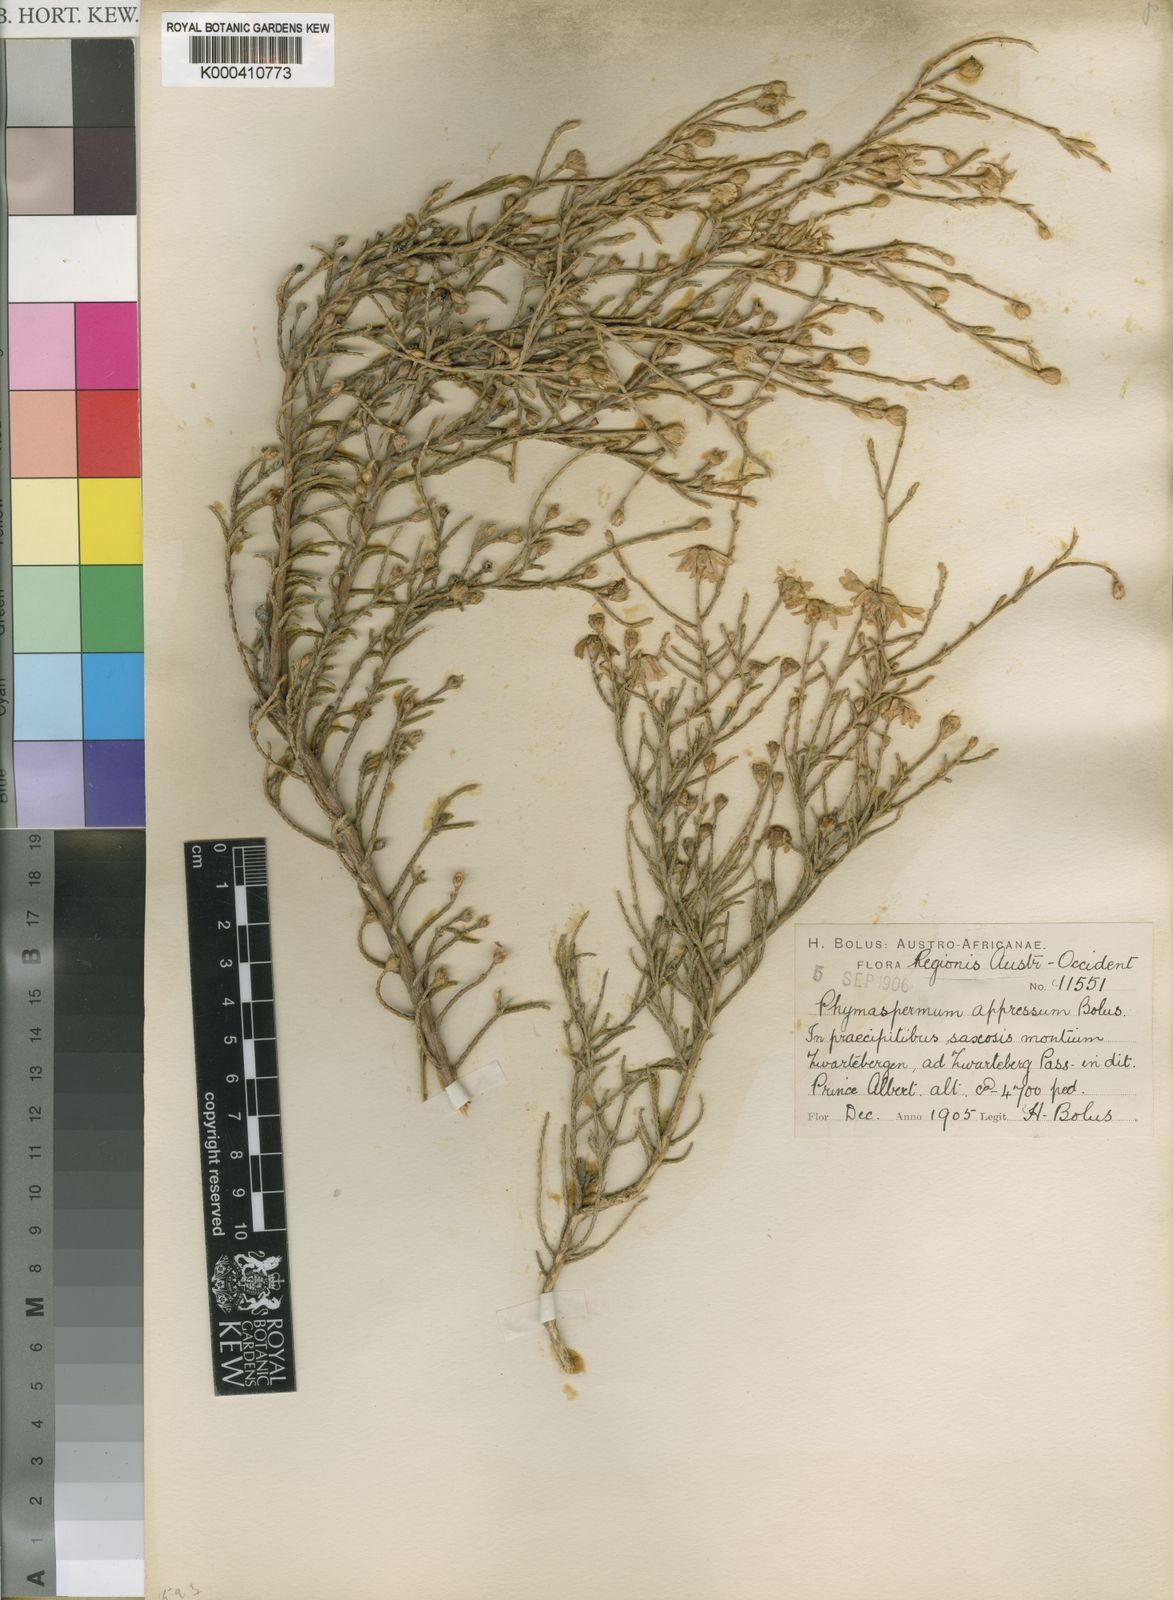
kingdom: Plantae
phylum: Tracheophyta
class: Magnoliopsida
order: Asterales
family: Asteraceae
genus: Phymaspermum
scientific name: Phymaspermum appressum
